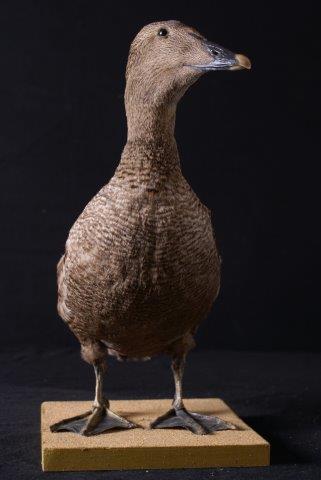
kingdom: Animalia
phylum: Chordata
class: Aves
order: Anseriformes
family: Anatidae
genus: Somateria
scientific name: Somateria mollissima
